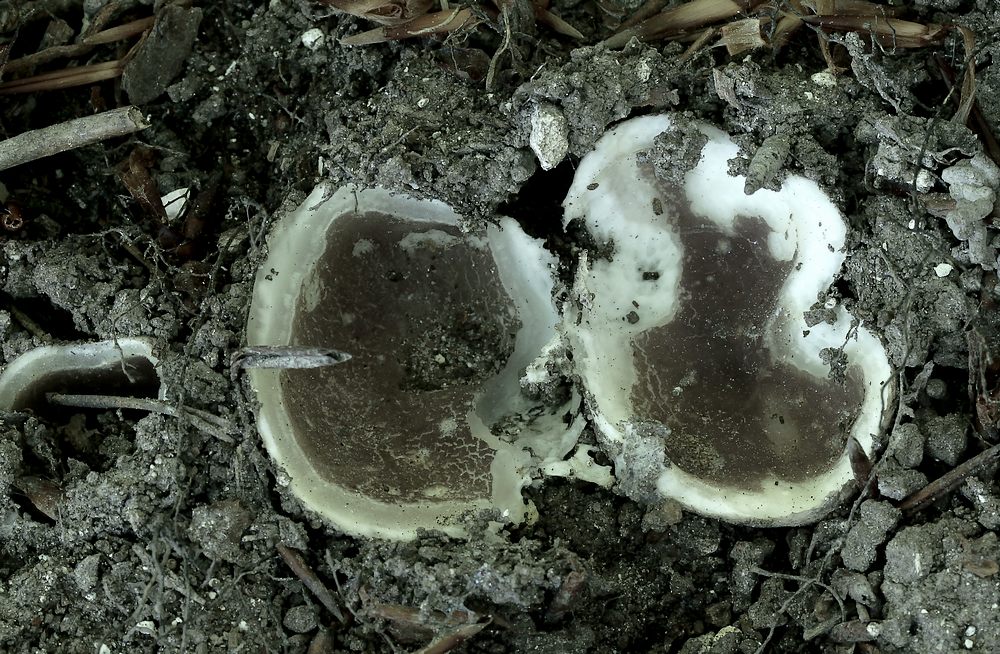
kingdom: Fungi
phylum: Ascomycota
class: Pezizomycetes
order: Pezizales
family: Pezizaceae
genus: Sarcosphaera
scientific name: Sarcosphaera coronaria
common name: stjernebæger
